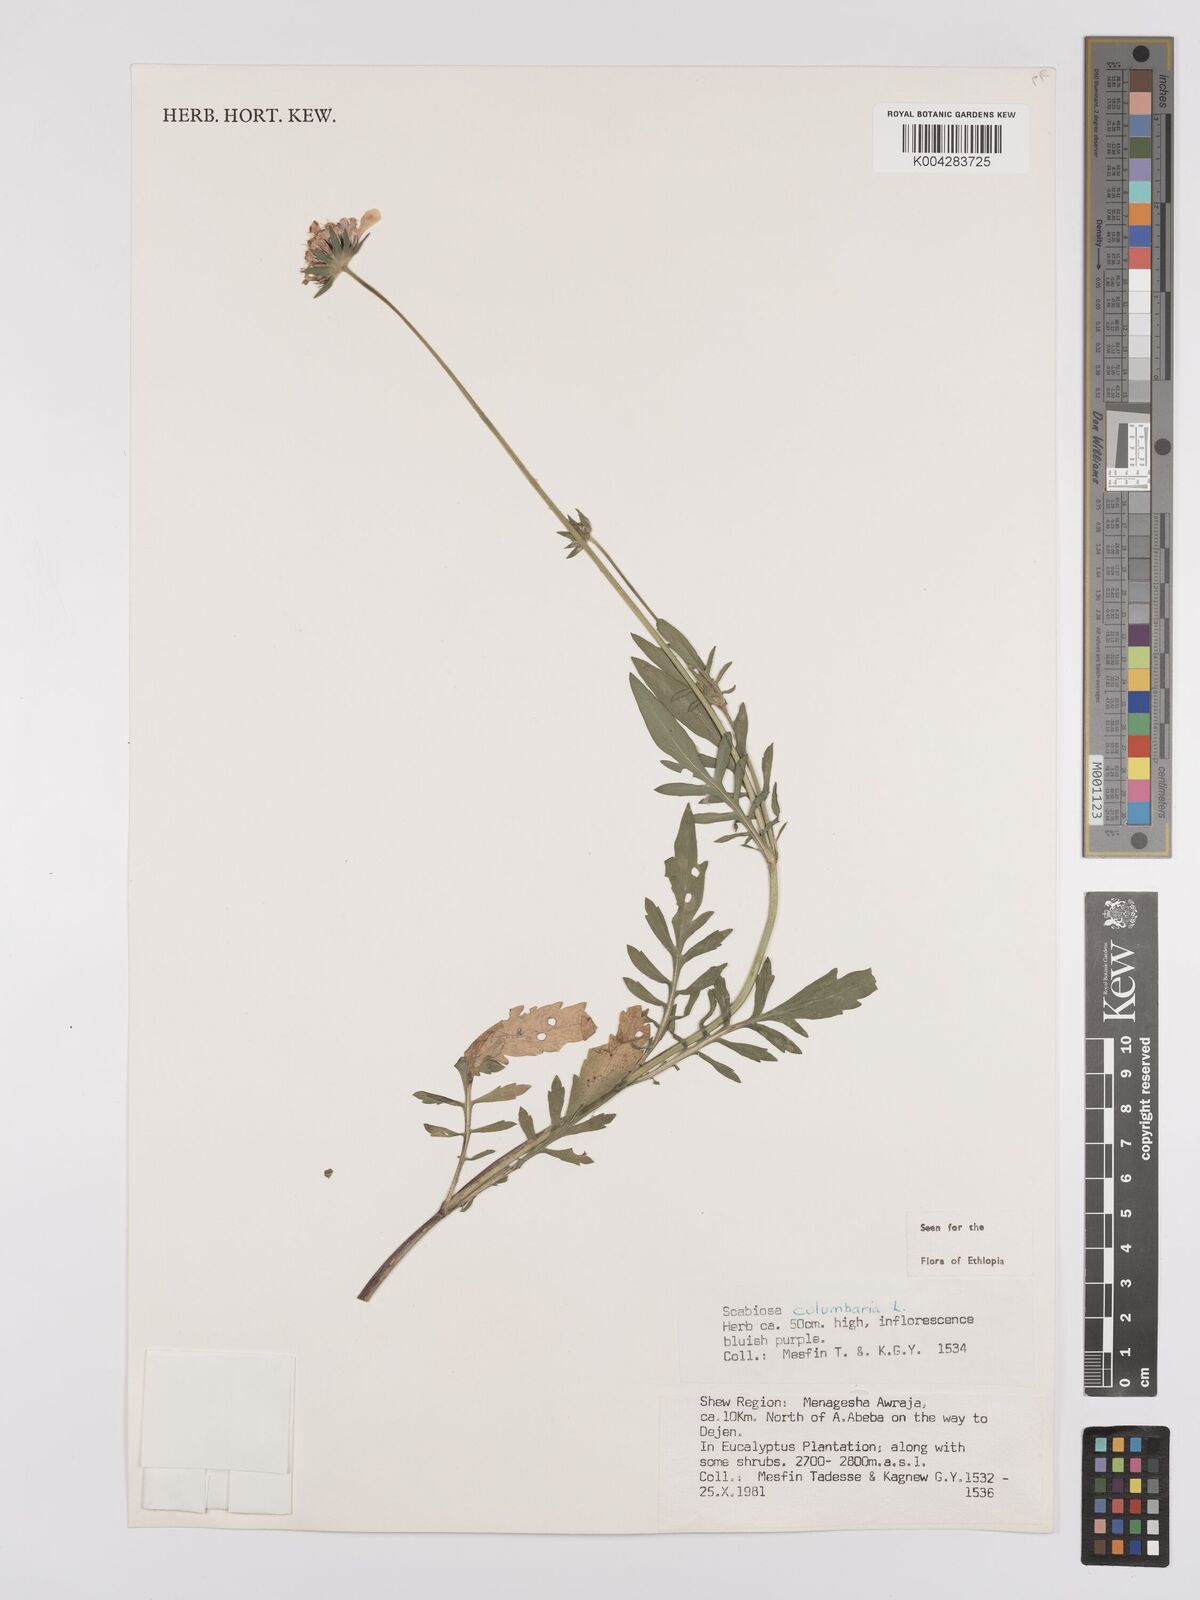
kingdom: Plantae
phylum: Tracheophyta
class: Magnoliopsida
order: Dipsacales
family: Caprifoliaceae
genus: Scabiosa
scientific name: Scabiosa columbaria
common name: Small scabious
